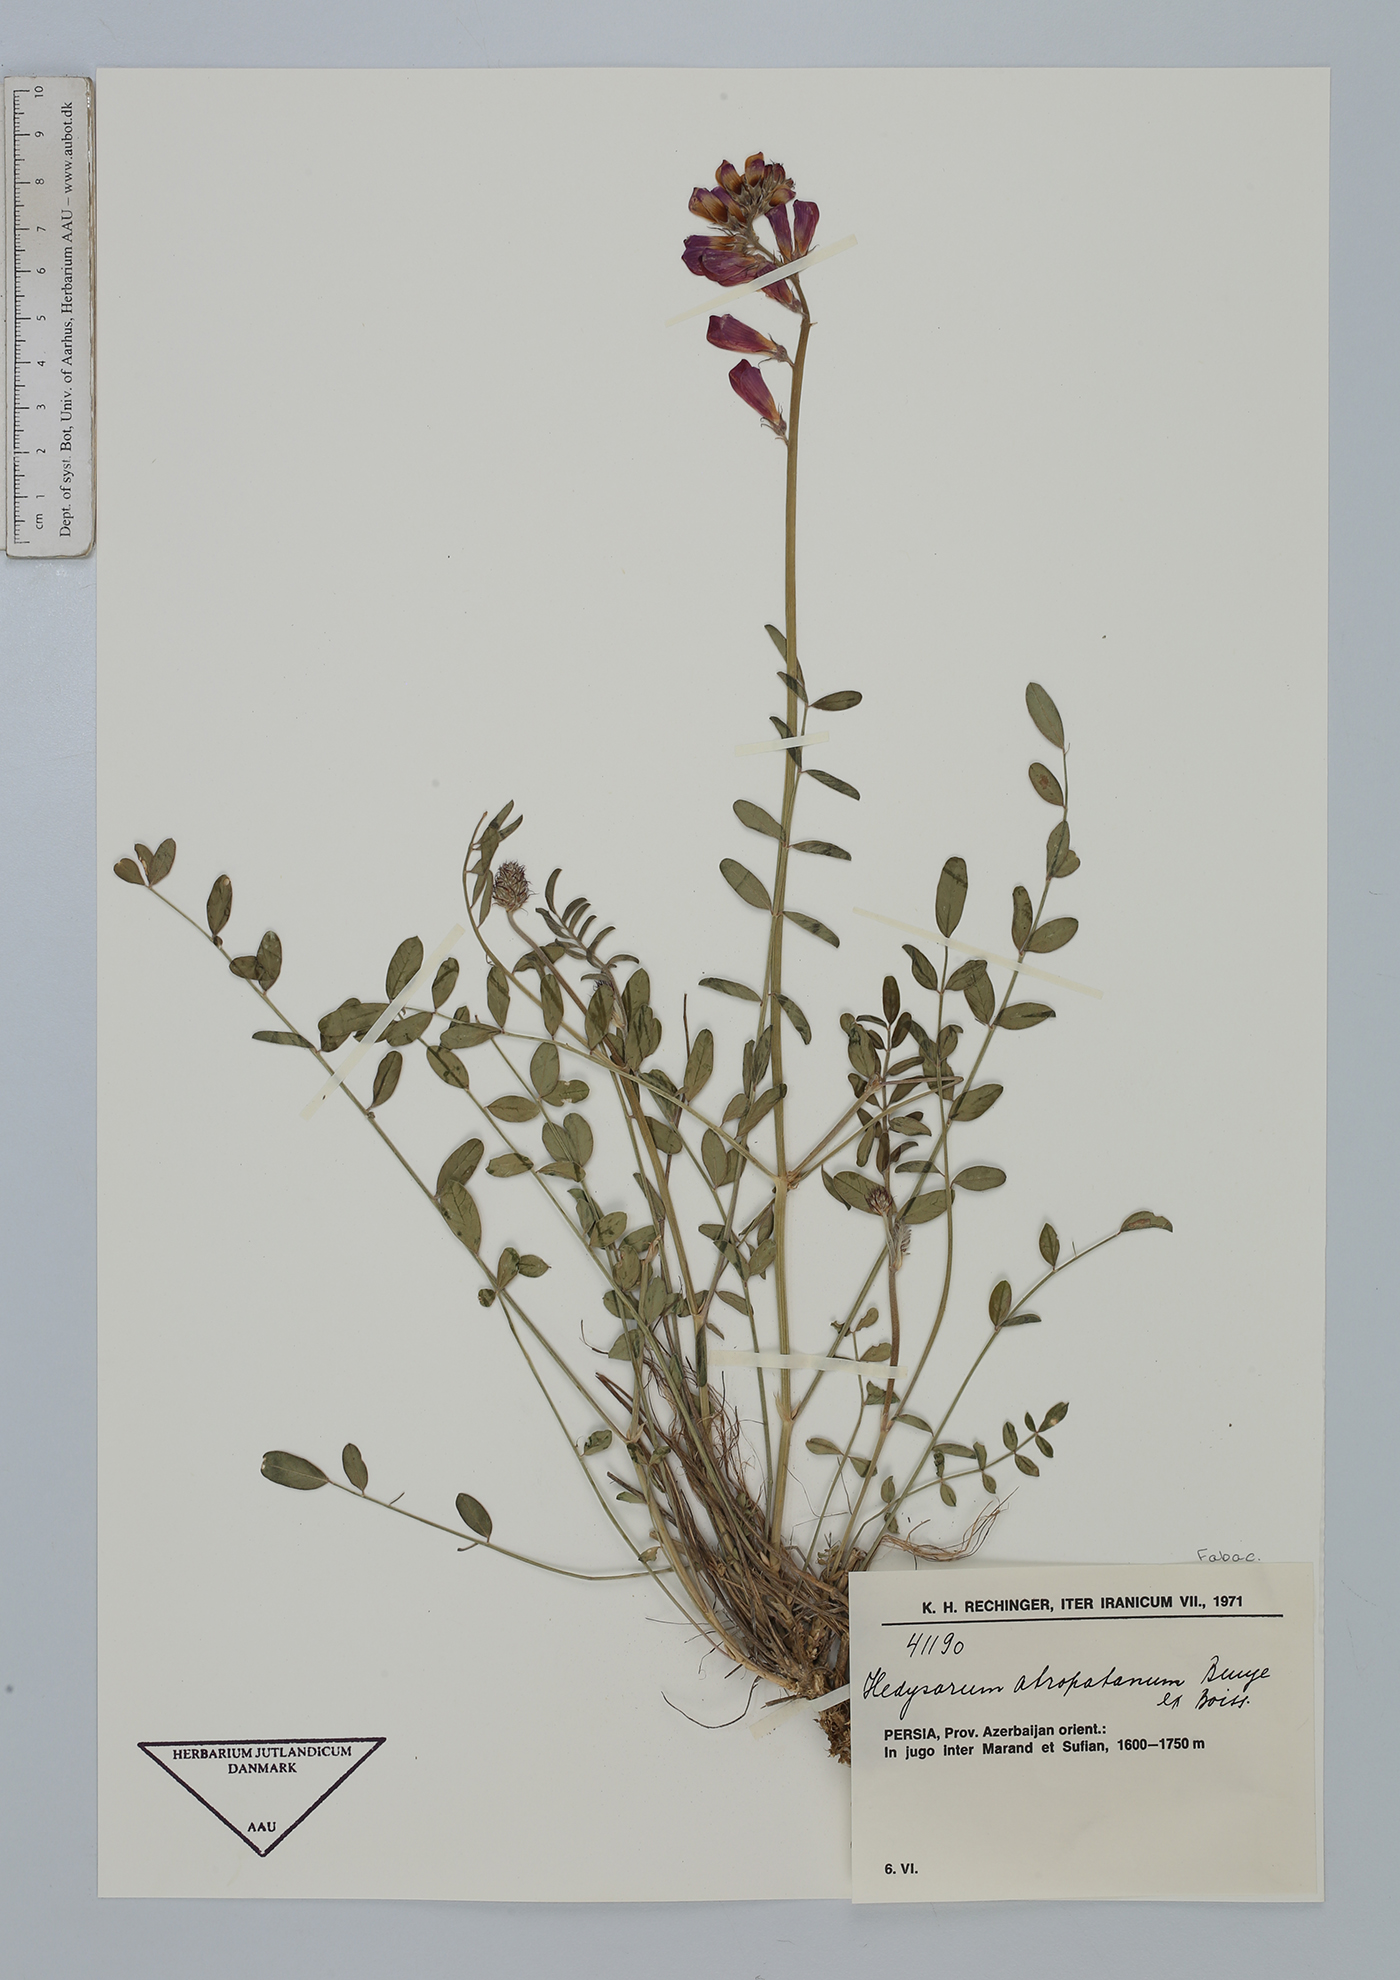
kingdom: Plantae
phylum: Tracheophyta
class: Magnoliopsida
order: Fabales
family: Fabaceae
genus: Hedysarum
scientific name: Hedysarum atropatanum
